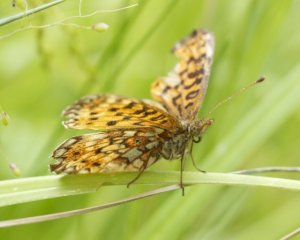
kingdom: Animalia
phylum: Arthropoda
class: Insecta
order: Lepidoptera
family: Nymphalidae
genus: Boloria
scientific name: Boloria selene
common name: Silver-bordered Fritillary
